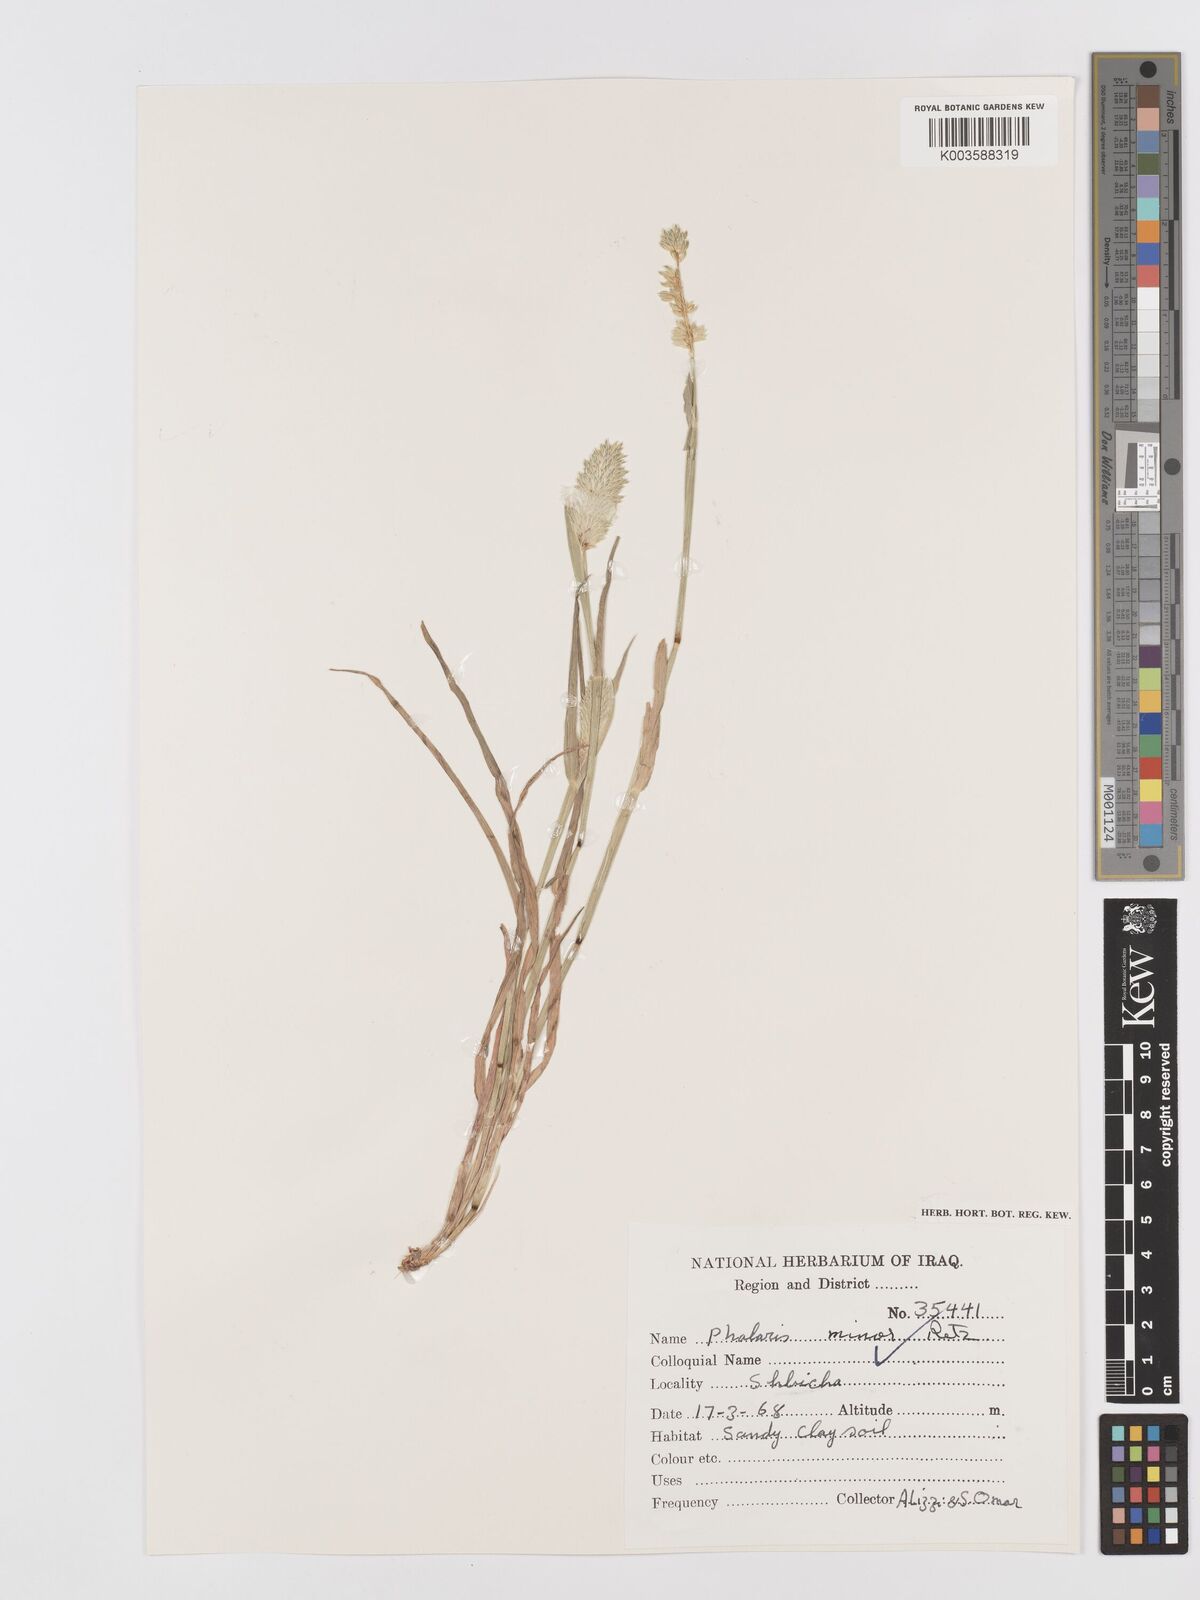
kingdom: Plantae
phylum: Tracheophyta
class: Liliopsida
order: Poales
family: Poaceae
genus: Phalaris
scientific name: Phalaris minor
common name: Littleseed canarygrass
